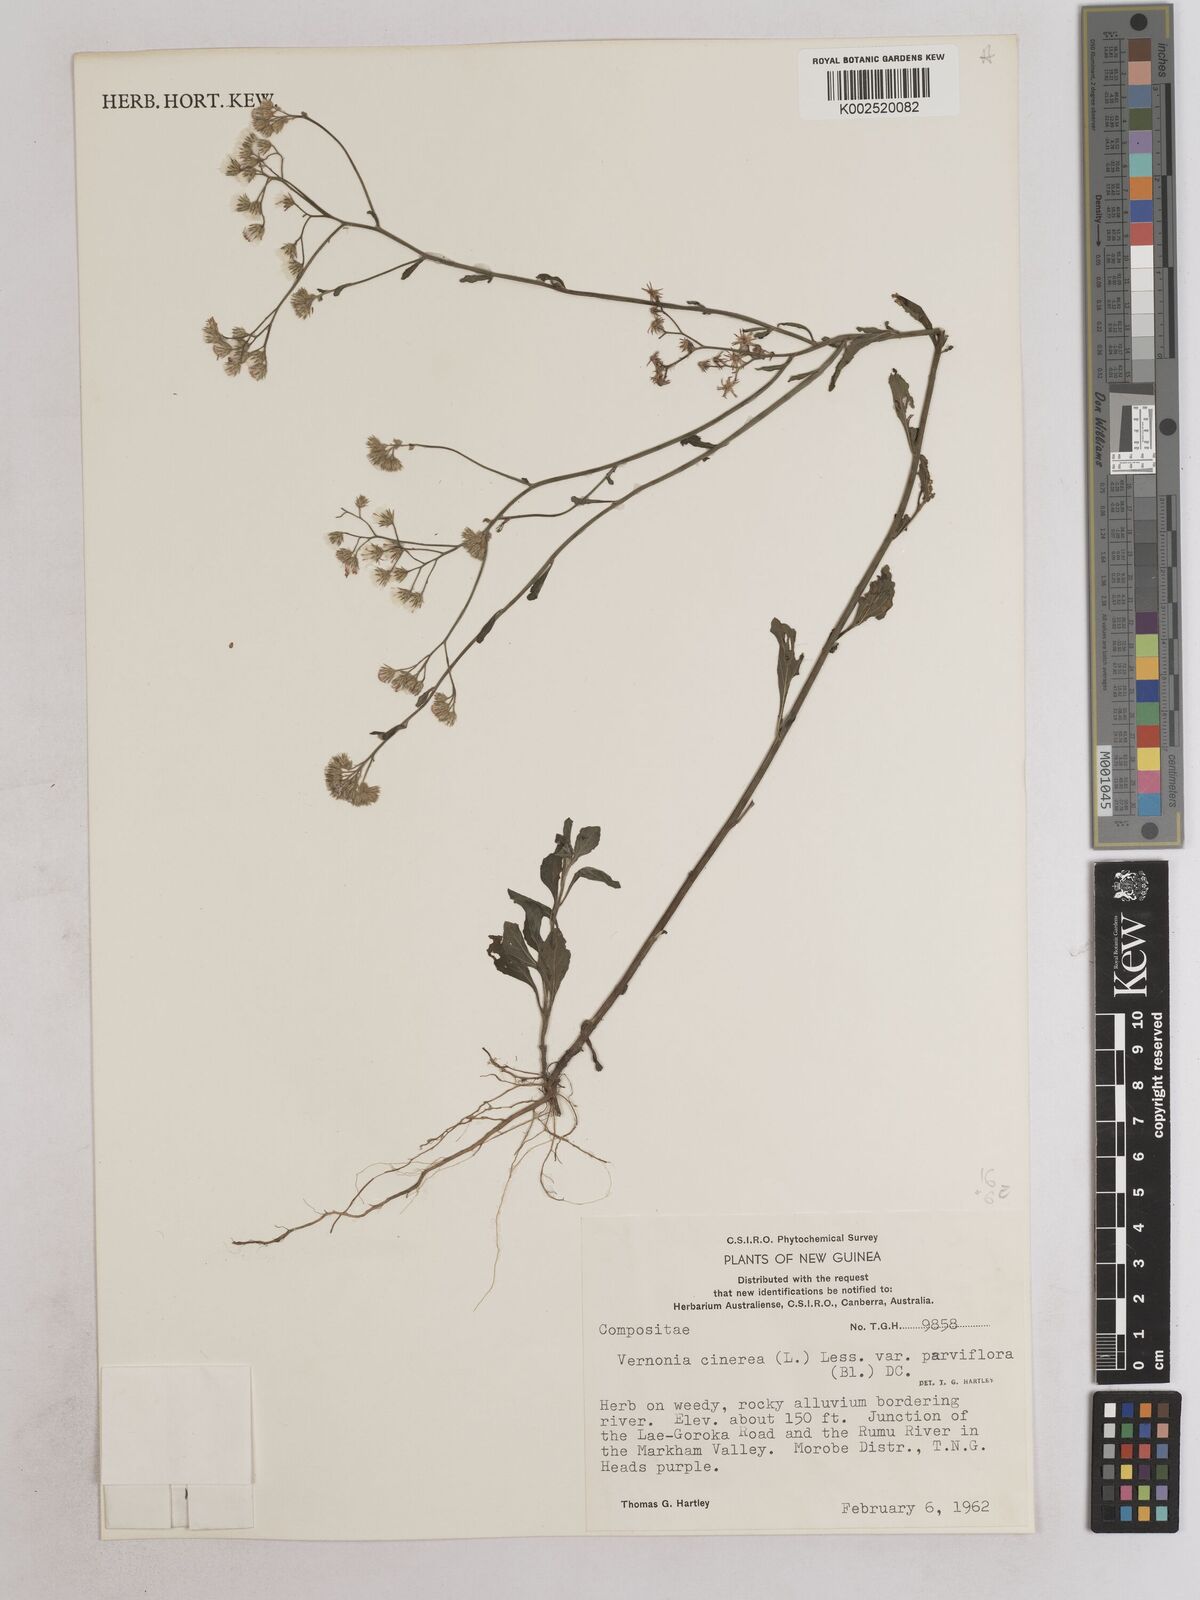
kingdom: Plantae
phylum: Tracheophyta
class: Magnoliopsida
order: Asterales
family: Asteraceae
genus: Cyanthillium
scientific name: Cyanthillium cinereum
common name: Little ironweed
